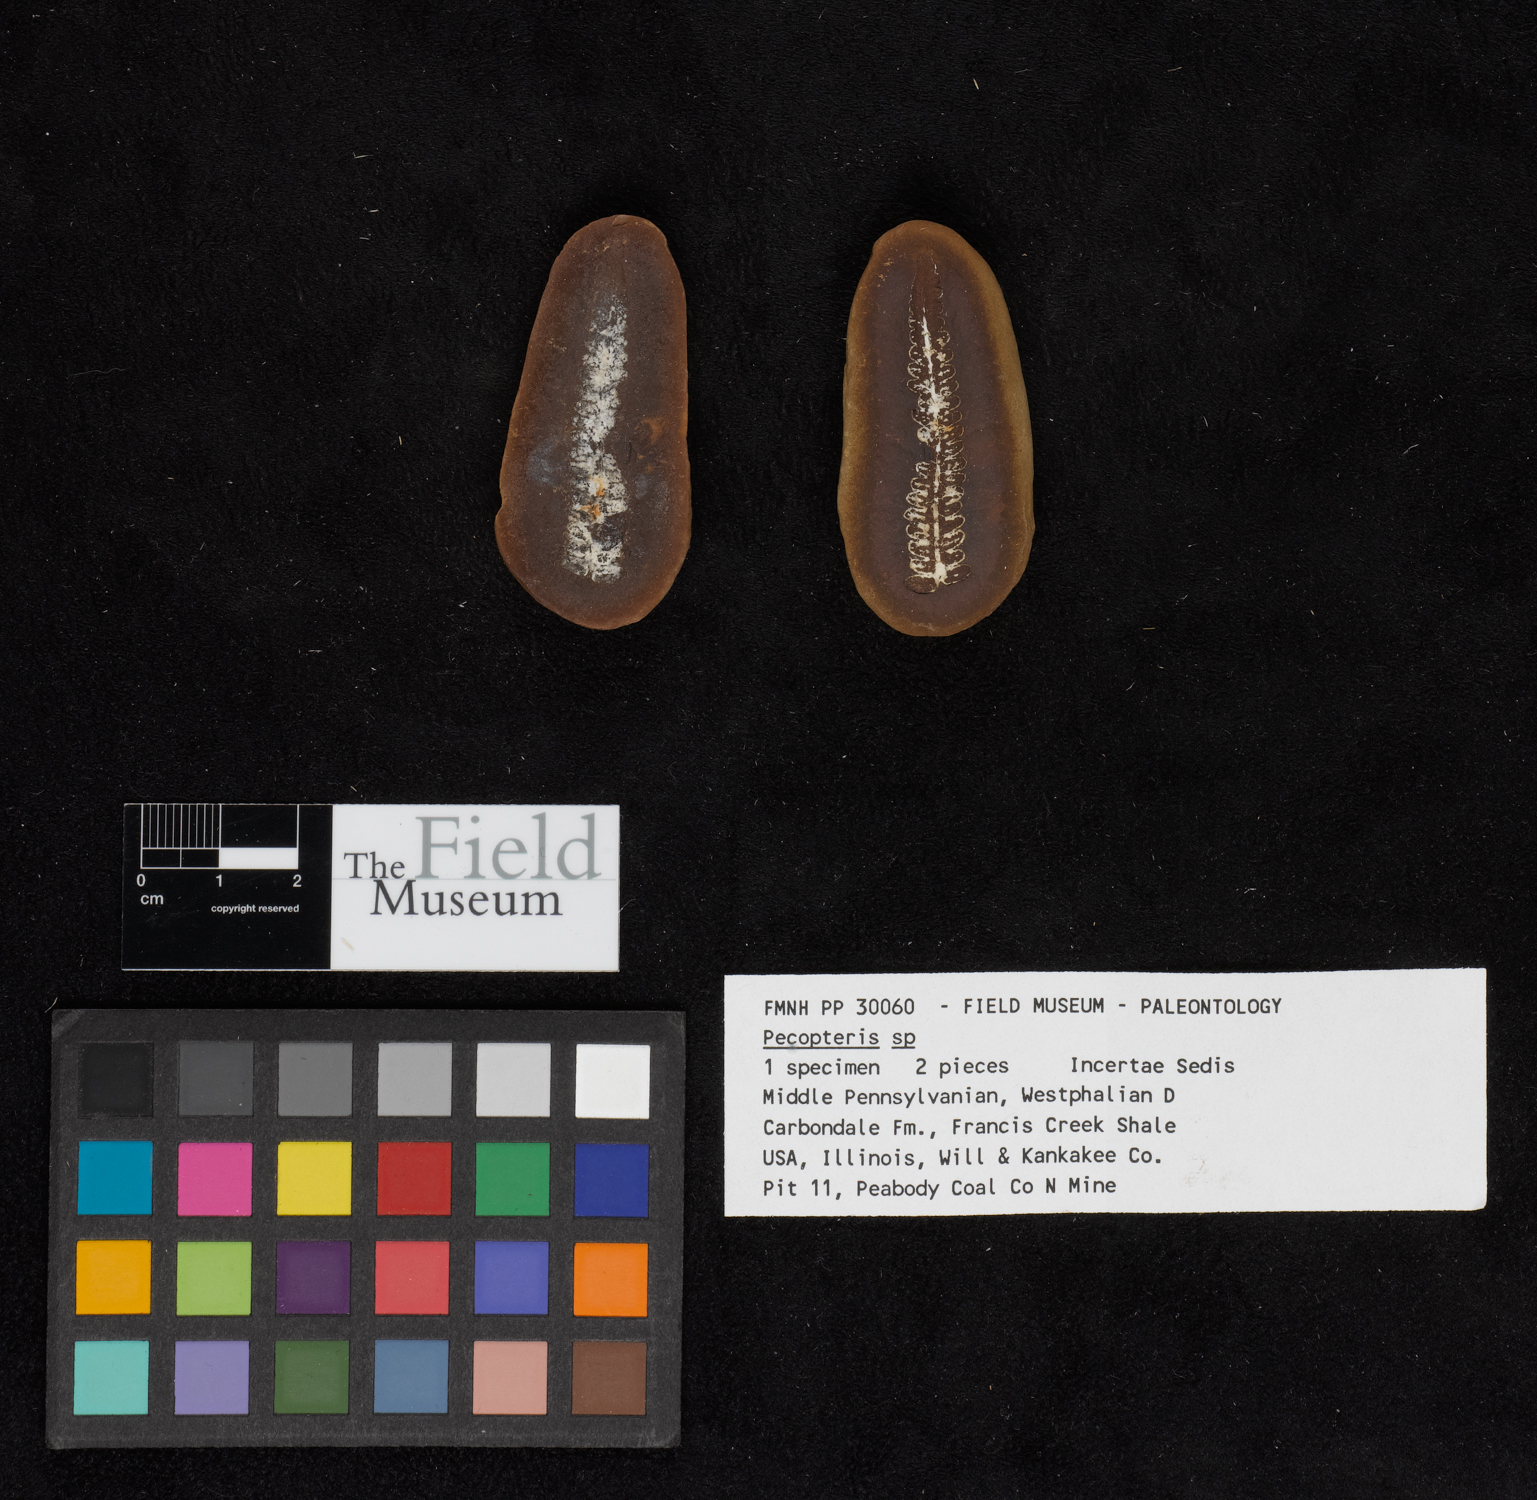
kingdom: Plantae
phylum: Tracheophyta
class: Polypodiopsida
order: Marattiales
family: Asterothecaceae
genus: Pecopteris
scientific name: Pecopteris
